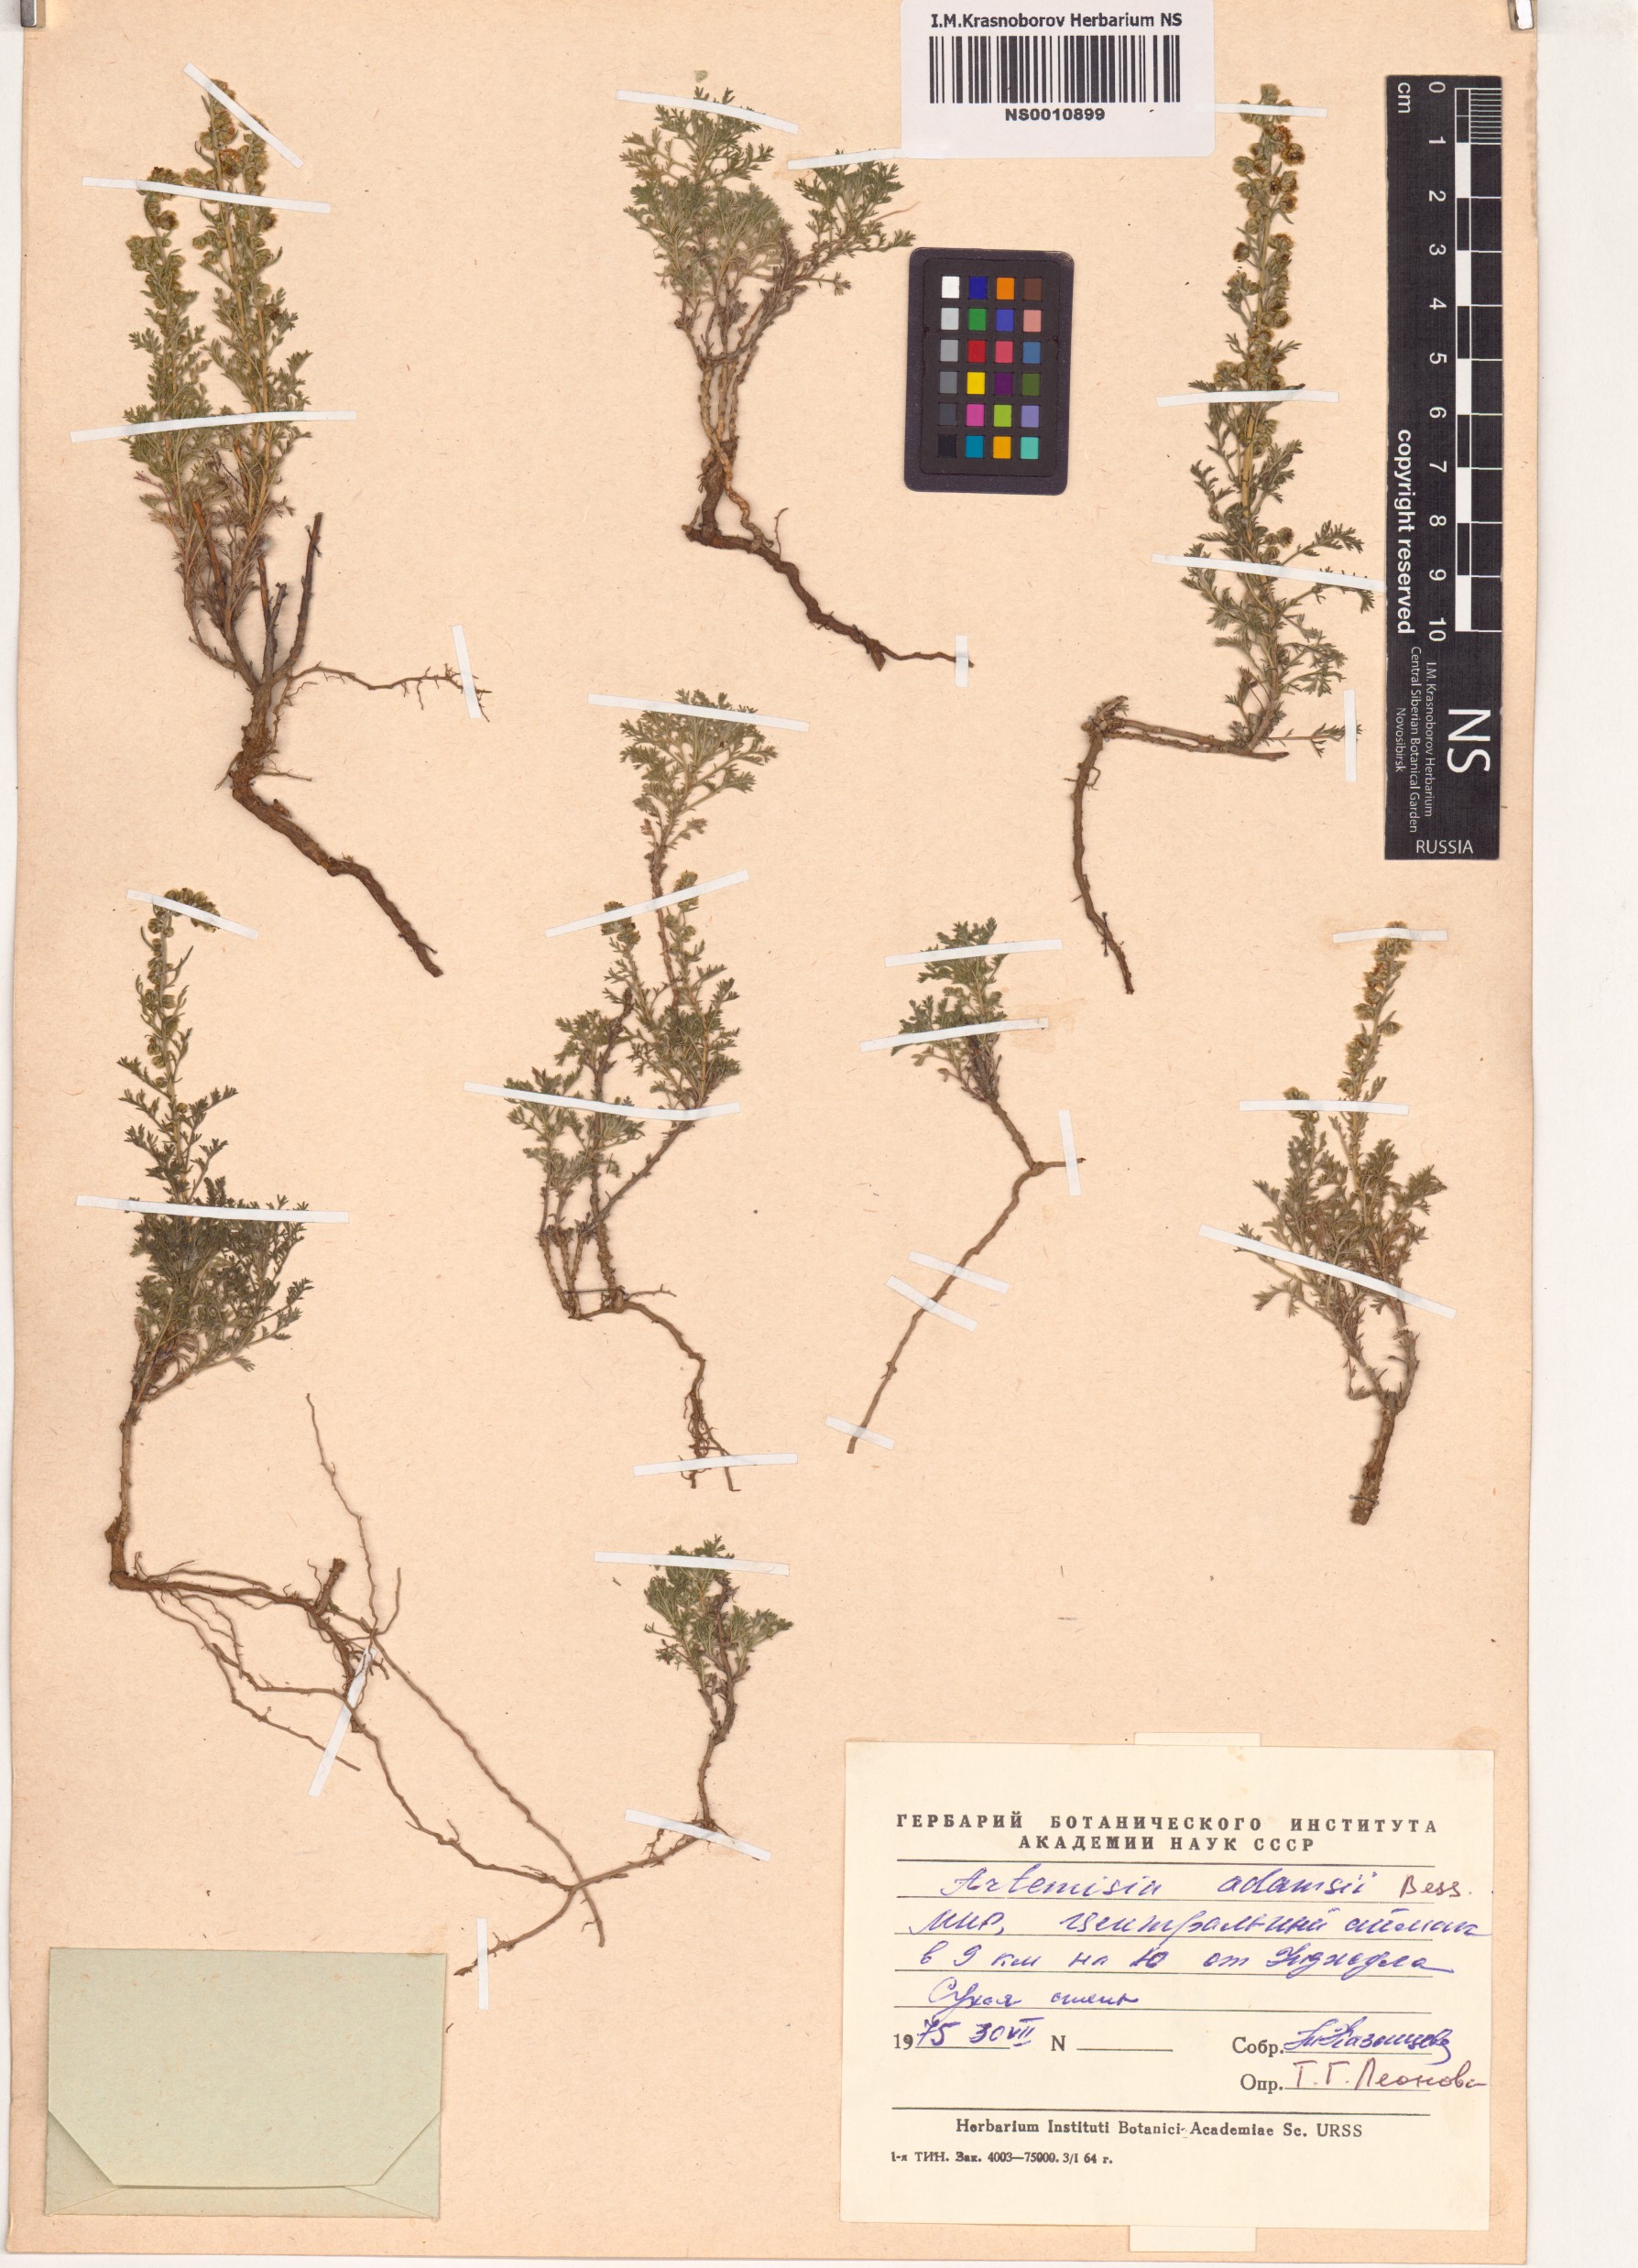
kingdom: Plantae
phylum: Tracheophyta
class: Magnoliopsida
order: Asterales
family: Asteraceae
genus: Artemisia
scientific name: Artemisia adamsii
